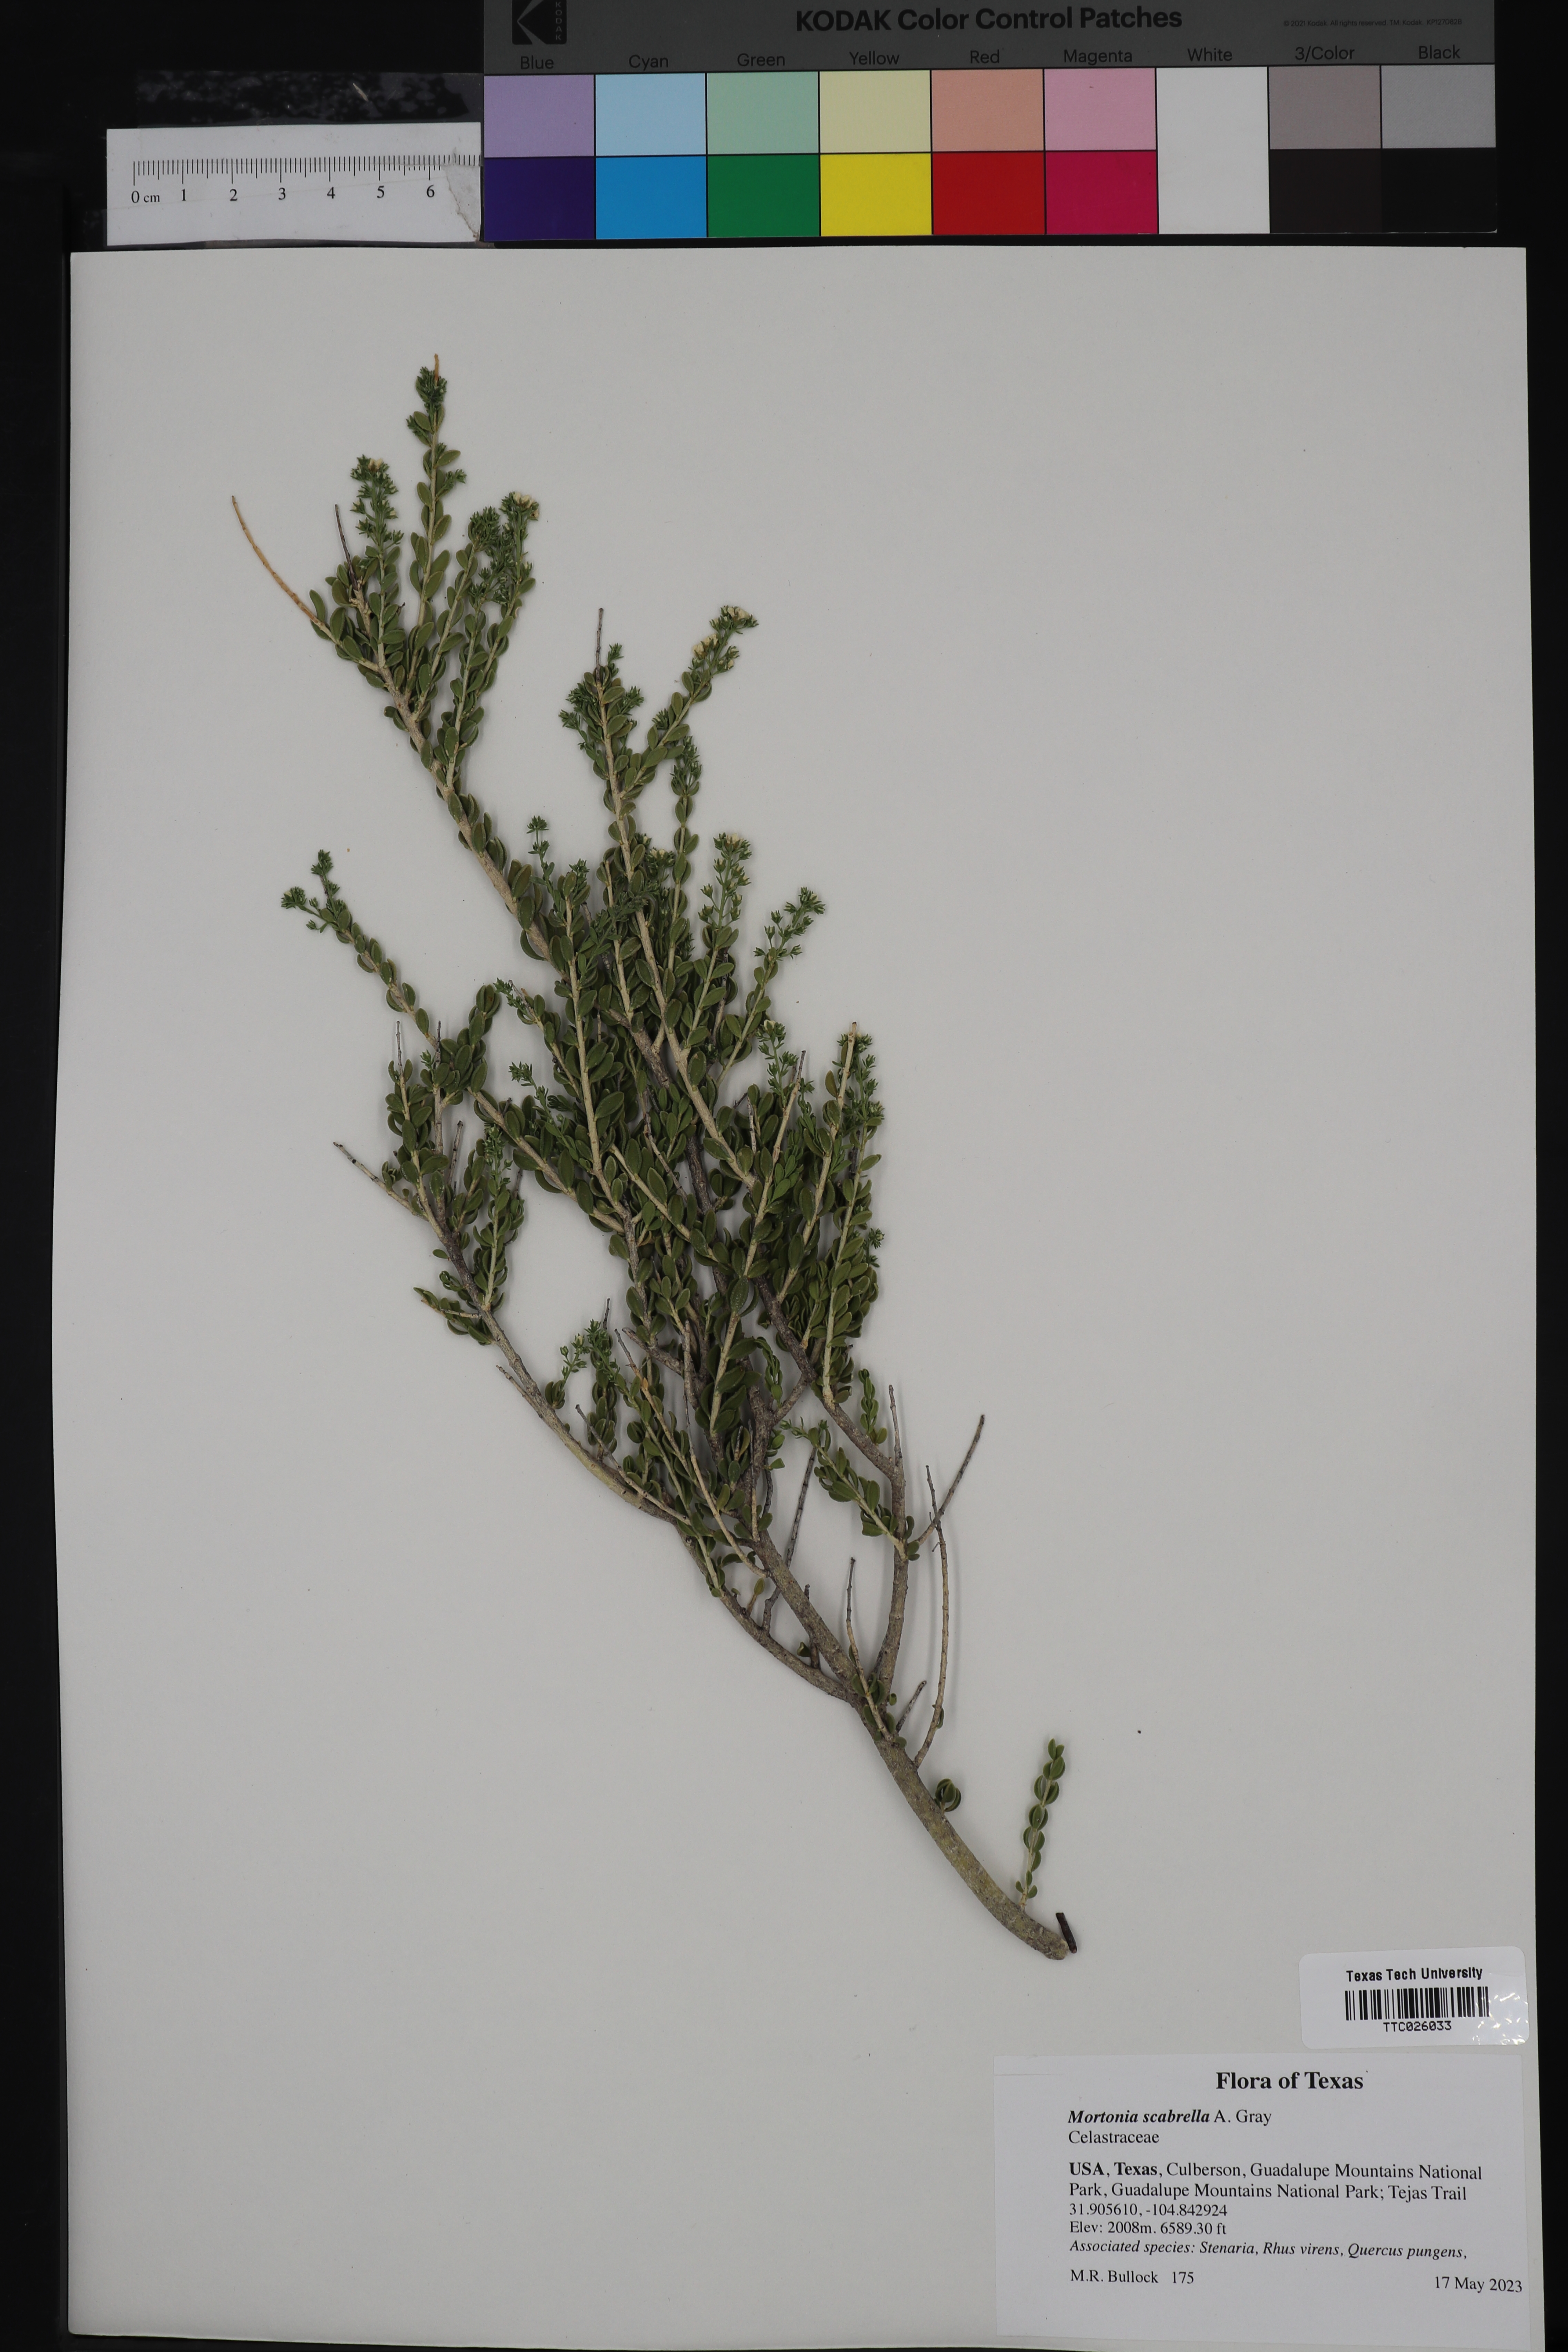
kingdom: Plantae
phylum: Tracheophyta
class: Magnoliopsida
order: Celastrales
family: Celastraceae
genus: Mortonia
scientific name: Mortonia scabrella
